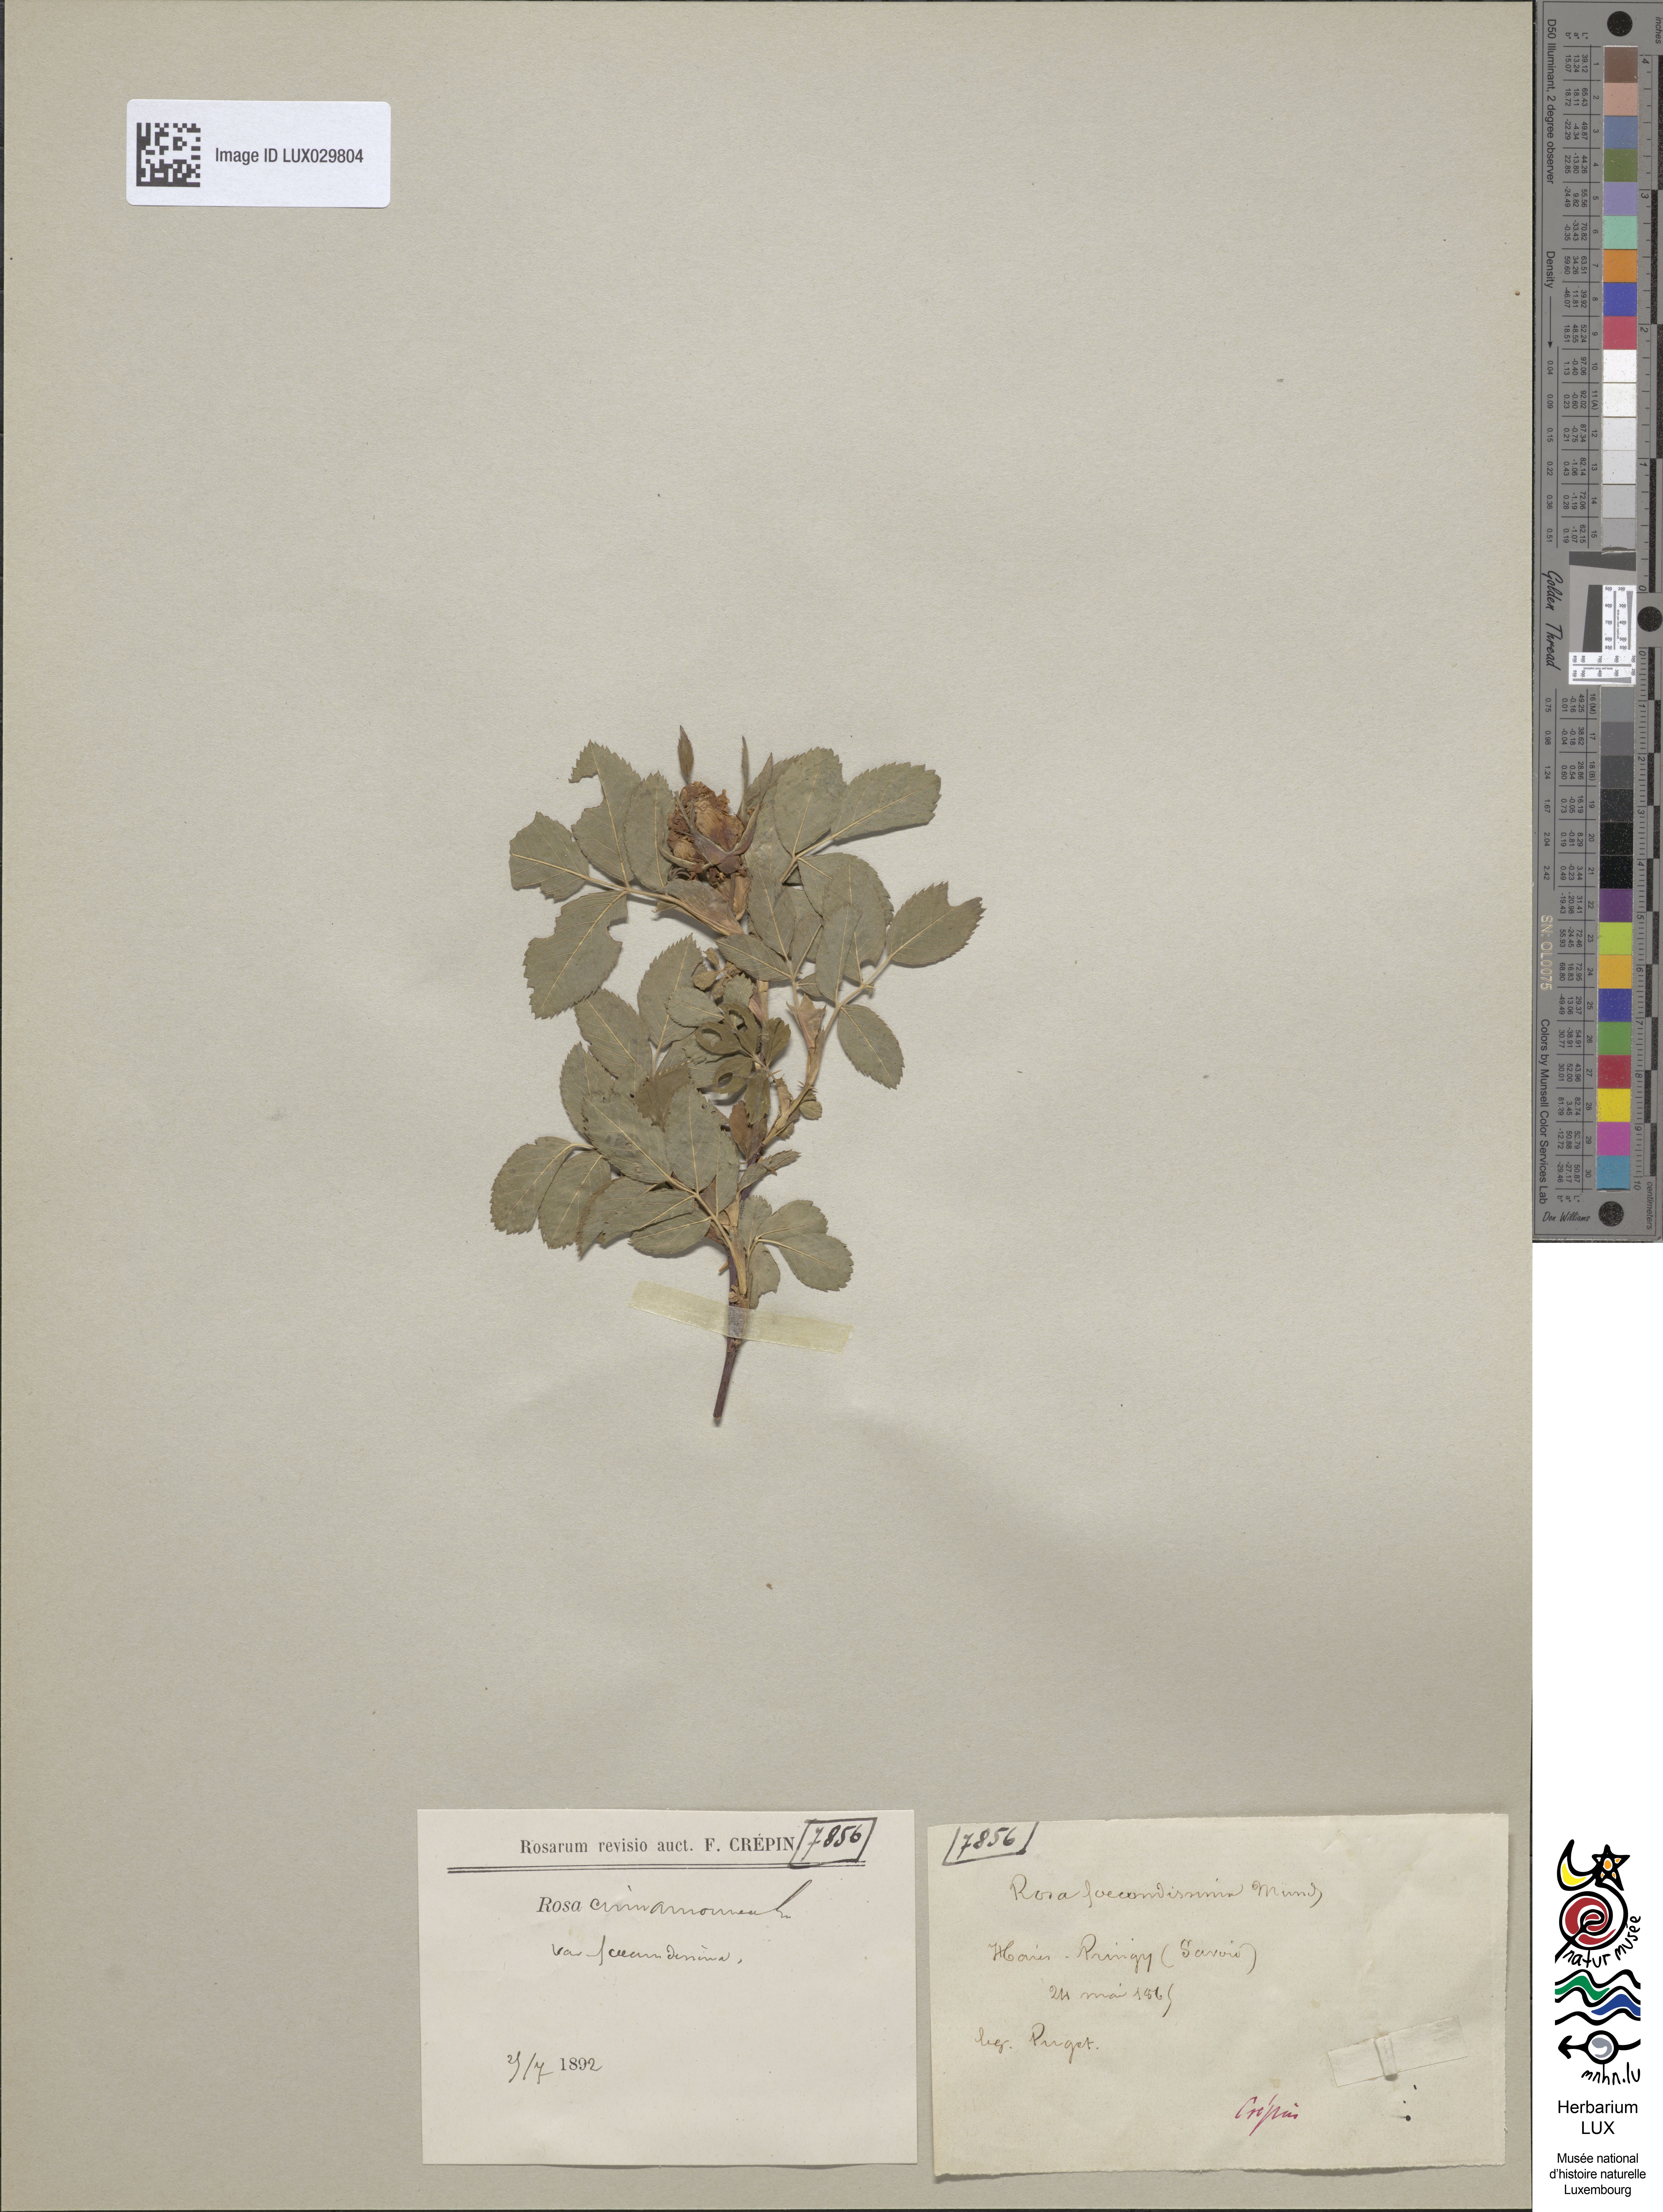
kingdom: Plantae
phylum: Tracheophyta
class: Magnoliopsida
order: Rosales
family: Rosaceae
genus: Rosa
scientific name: Rosa majalis
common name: Cinnamon rose
